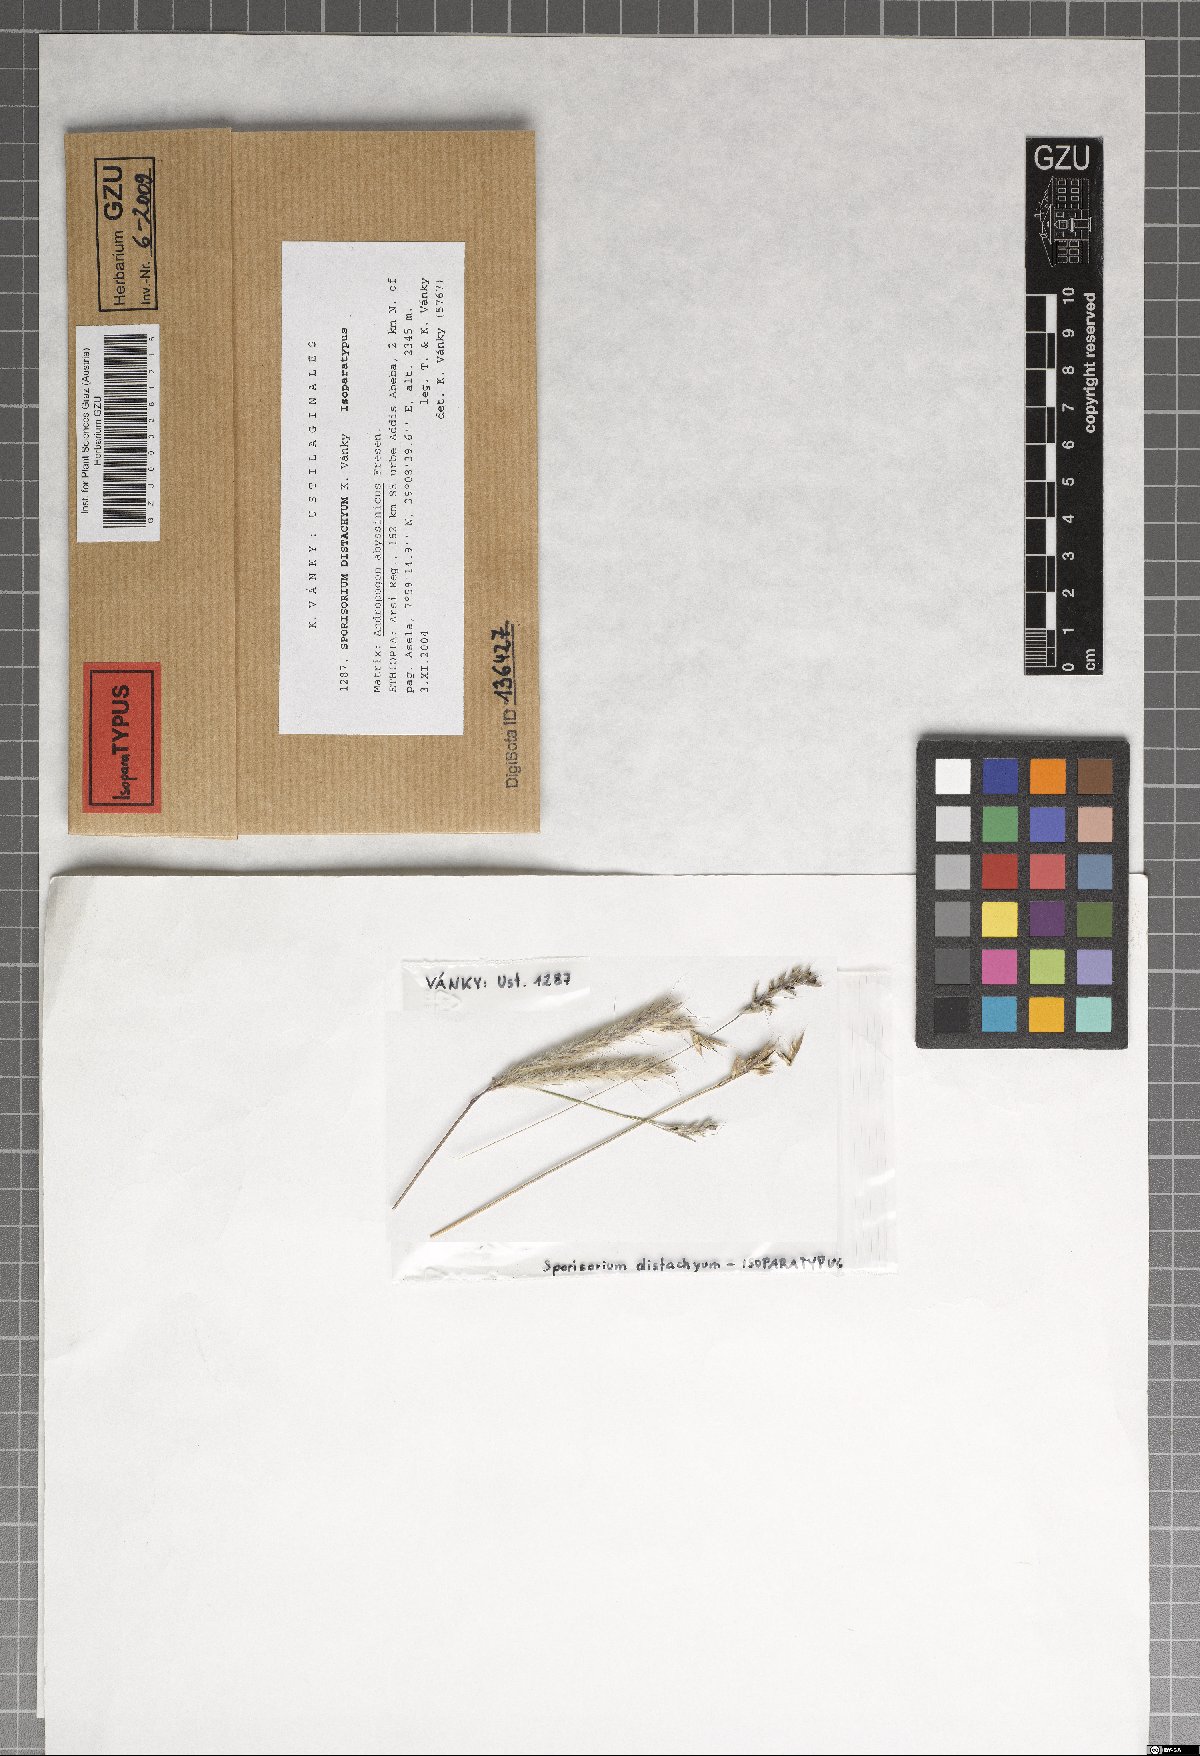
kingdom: Fungi
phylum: Basidiomycota
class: Ustilaginomycetes
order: Ustilaginales
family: Ustilaginaceae
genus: Sporisorium
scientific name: Sporisorium distachyum
